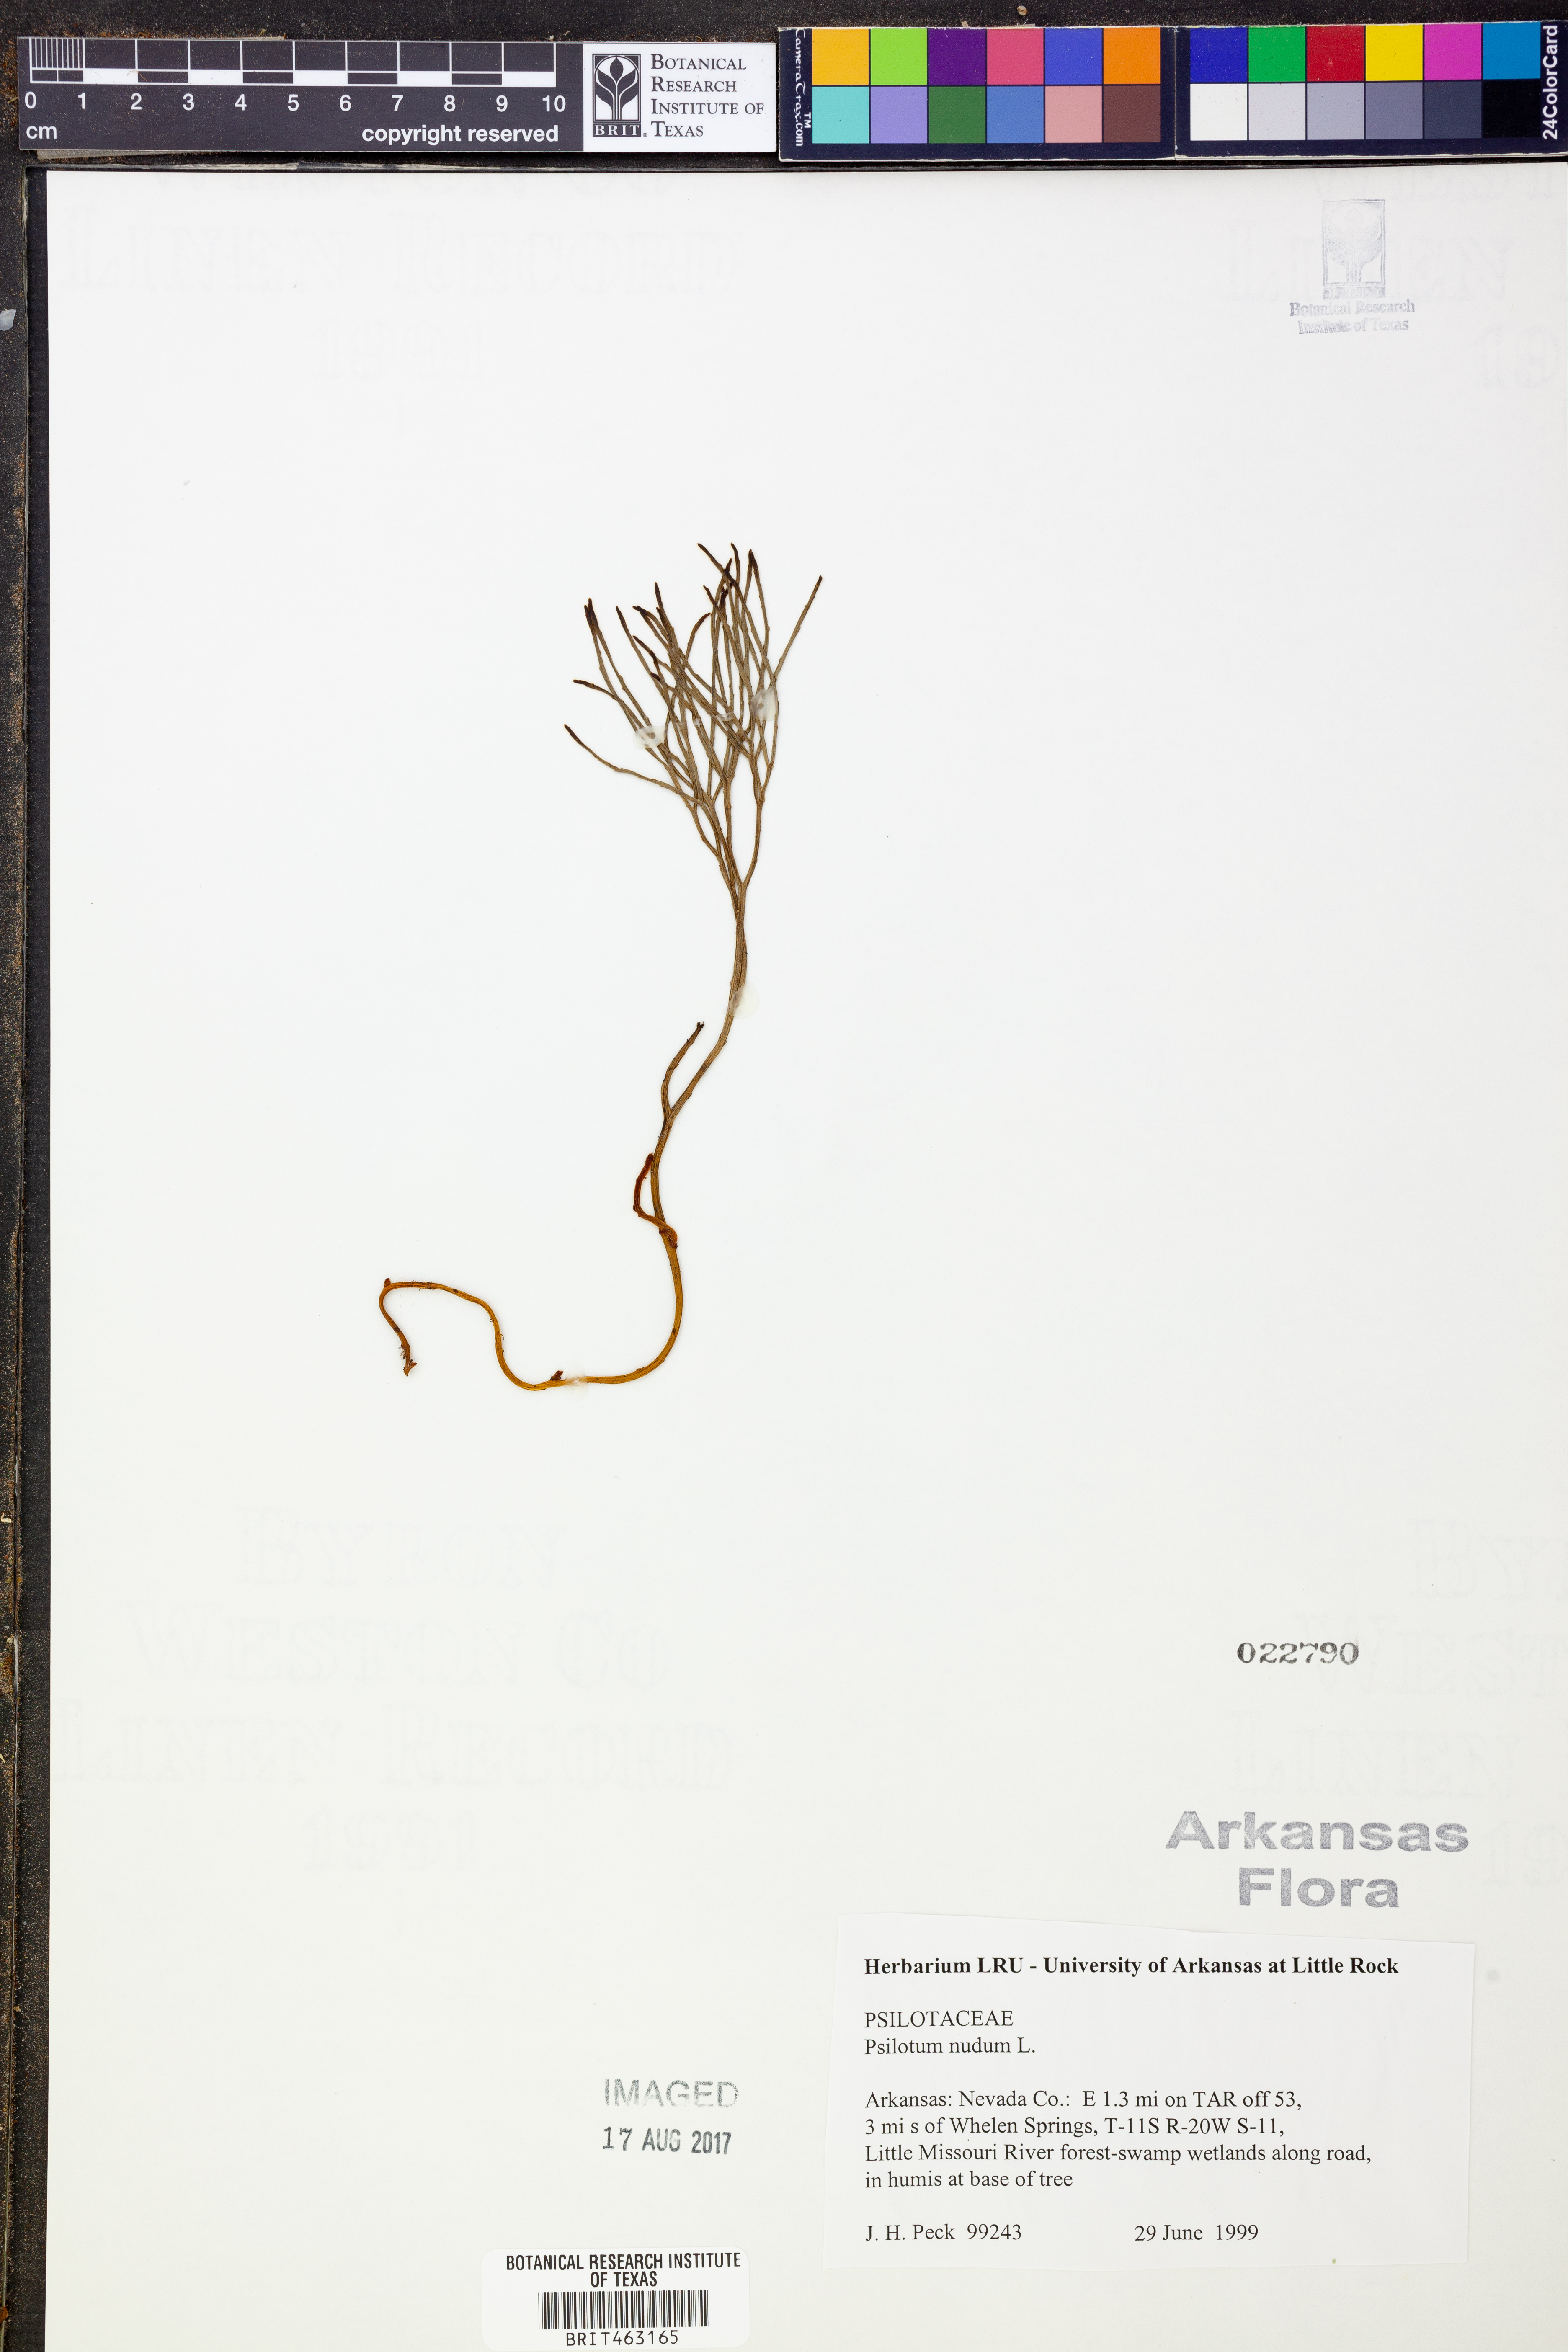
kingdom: Plantae
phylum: Tracheophyta
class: Polypodiopsida
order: Psilotales
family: Psilotaceae
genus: Psilotum
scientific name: Psilotum nudum
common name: Skeleton fork fern
